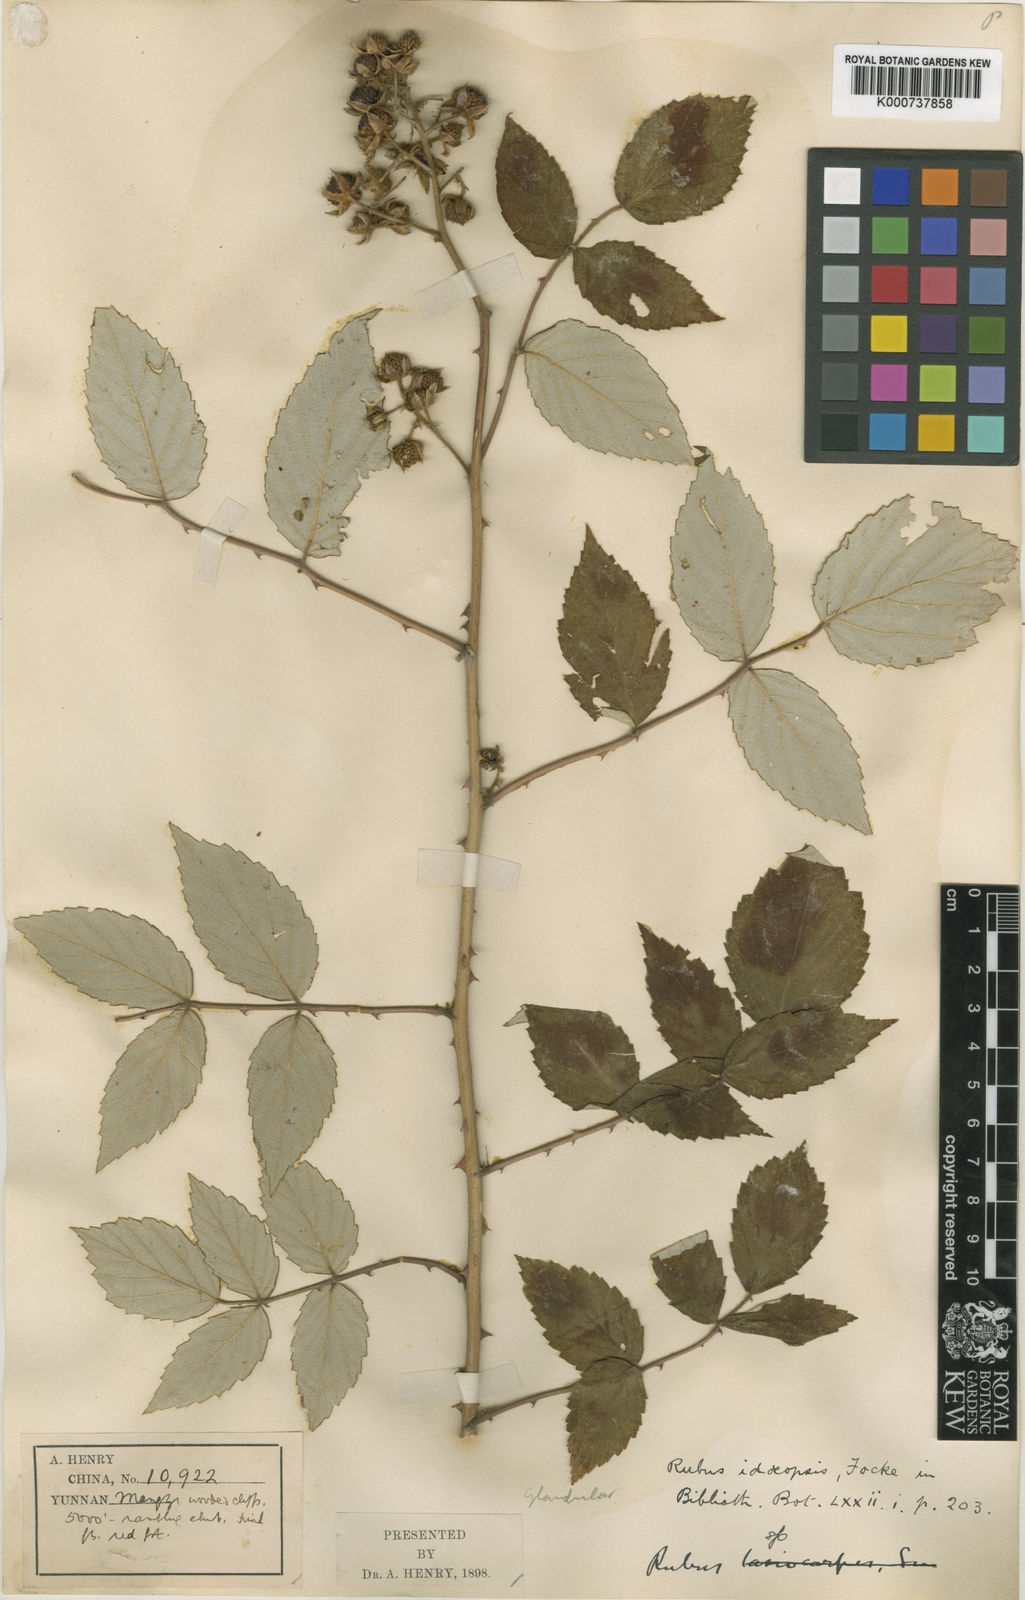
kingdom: Plantae
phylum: Tracheophyta
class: Magnoliopsida
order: Rosales
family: Rosaceae
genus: Rubus
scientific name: Rubus idaeopsis
